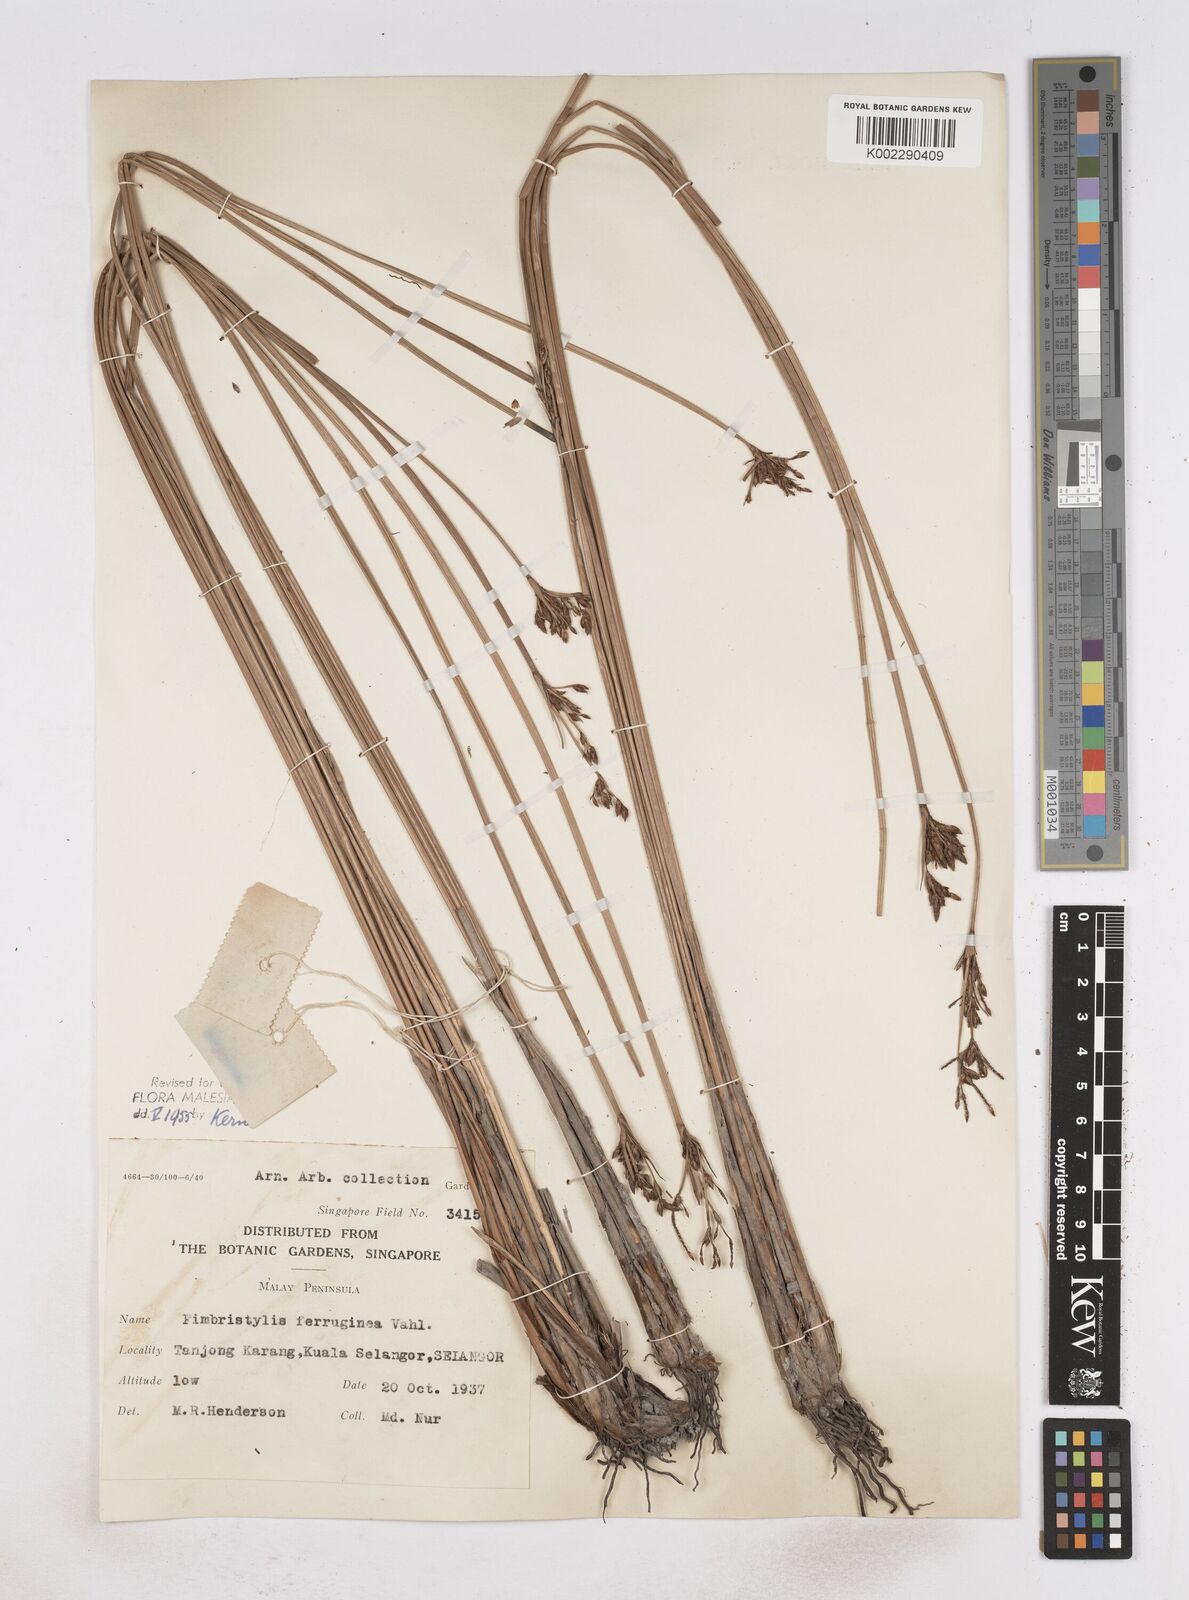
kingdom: Plantae
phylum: Tracheophyta
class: Liliopsida
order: Poales
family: Cyperaceae
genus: Fimbristylis
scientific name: Fimbristylis ferruginea
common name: West indian fimbry
